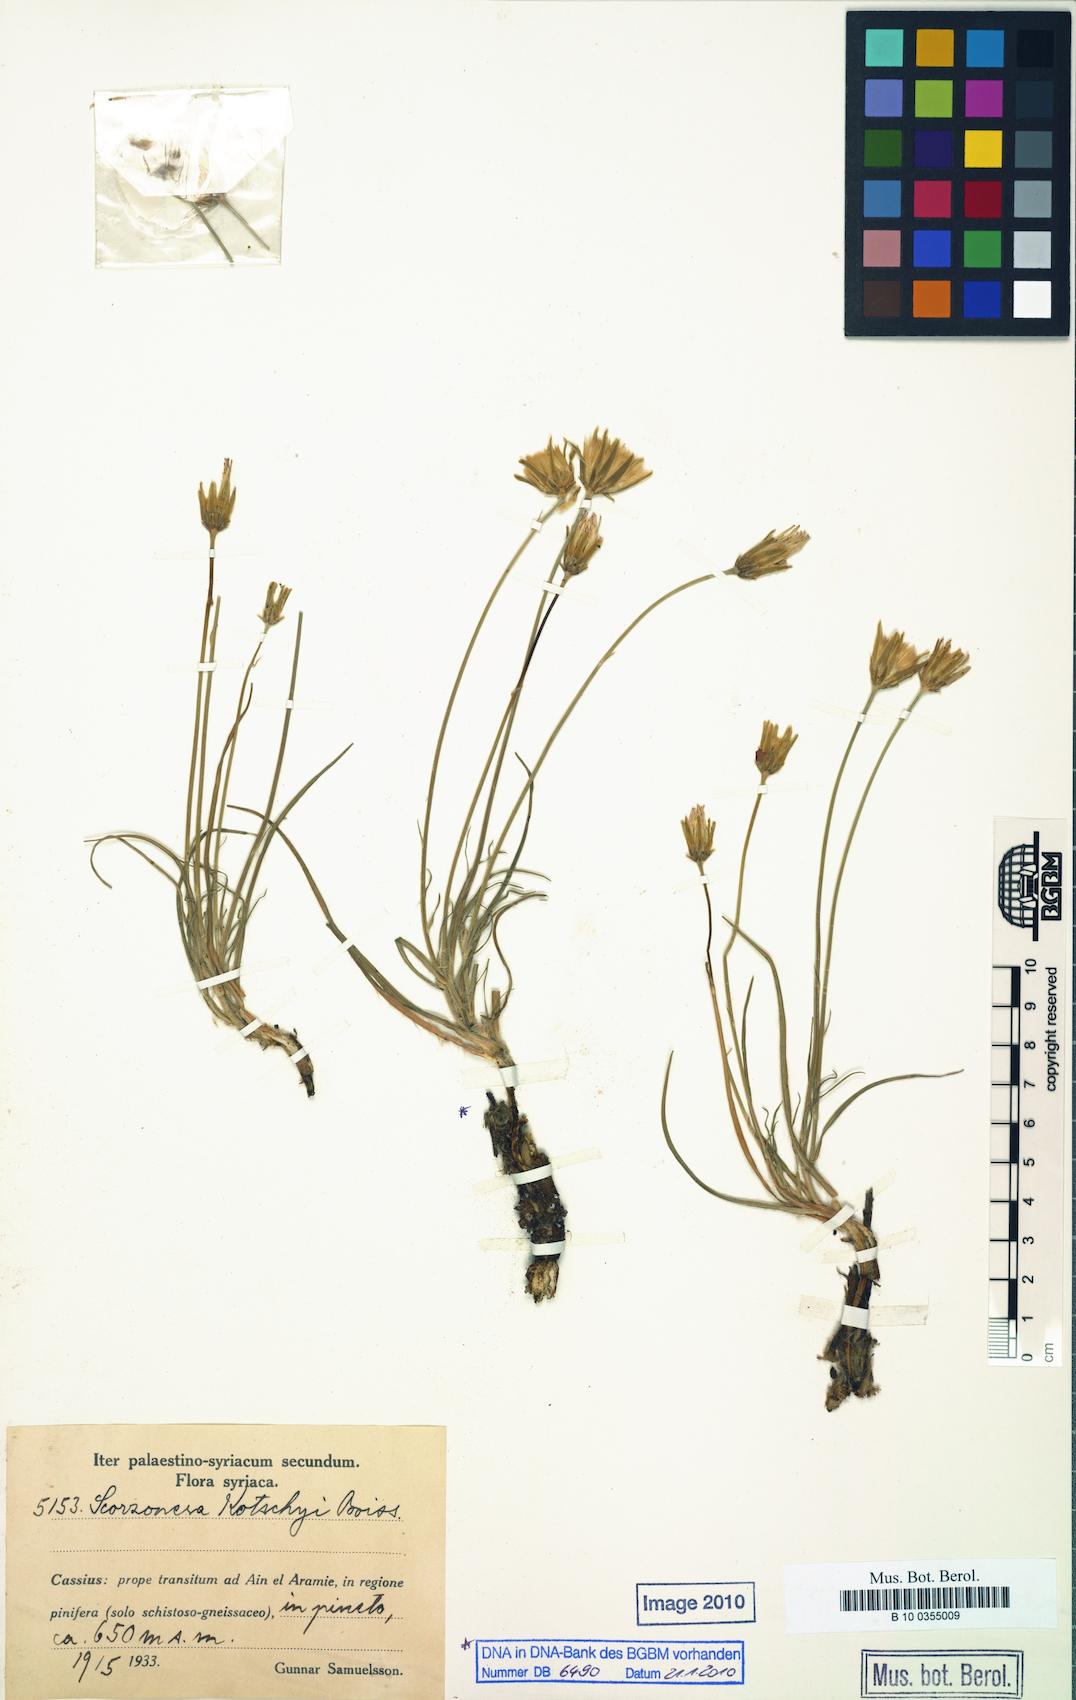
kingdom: Plantae
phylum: Tracheophyta
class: Magnoliopsida
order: Asterales
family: Asteraceae
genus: Turkia
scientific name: Turkia kotschyi
